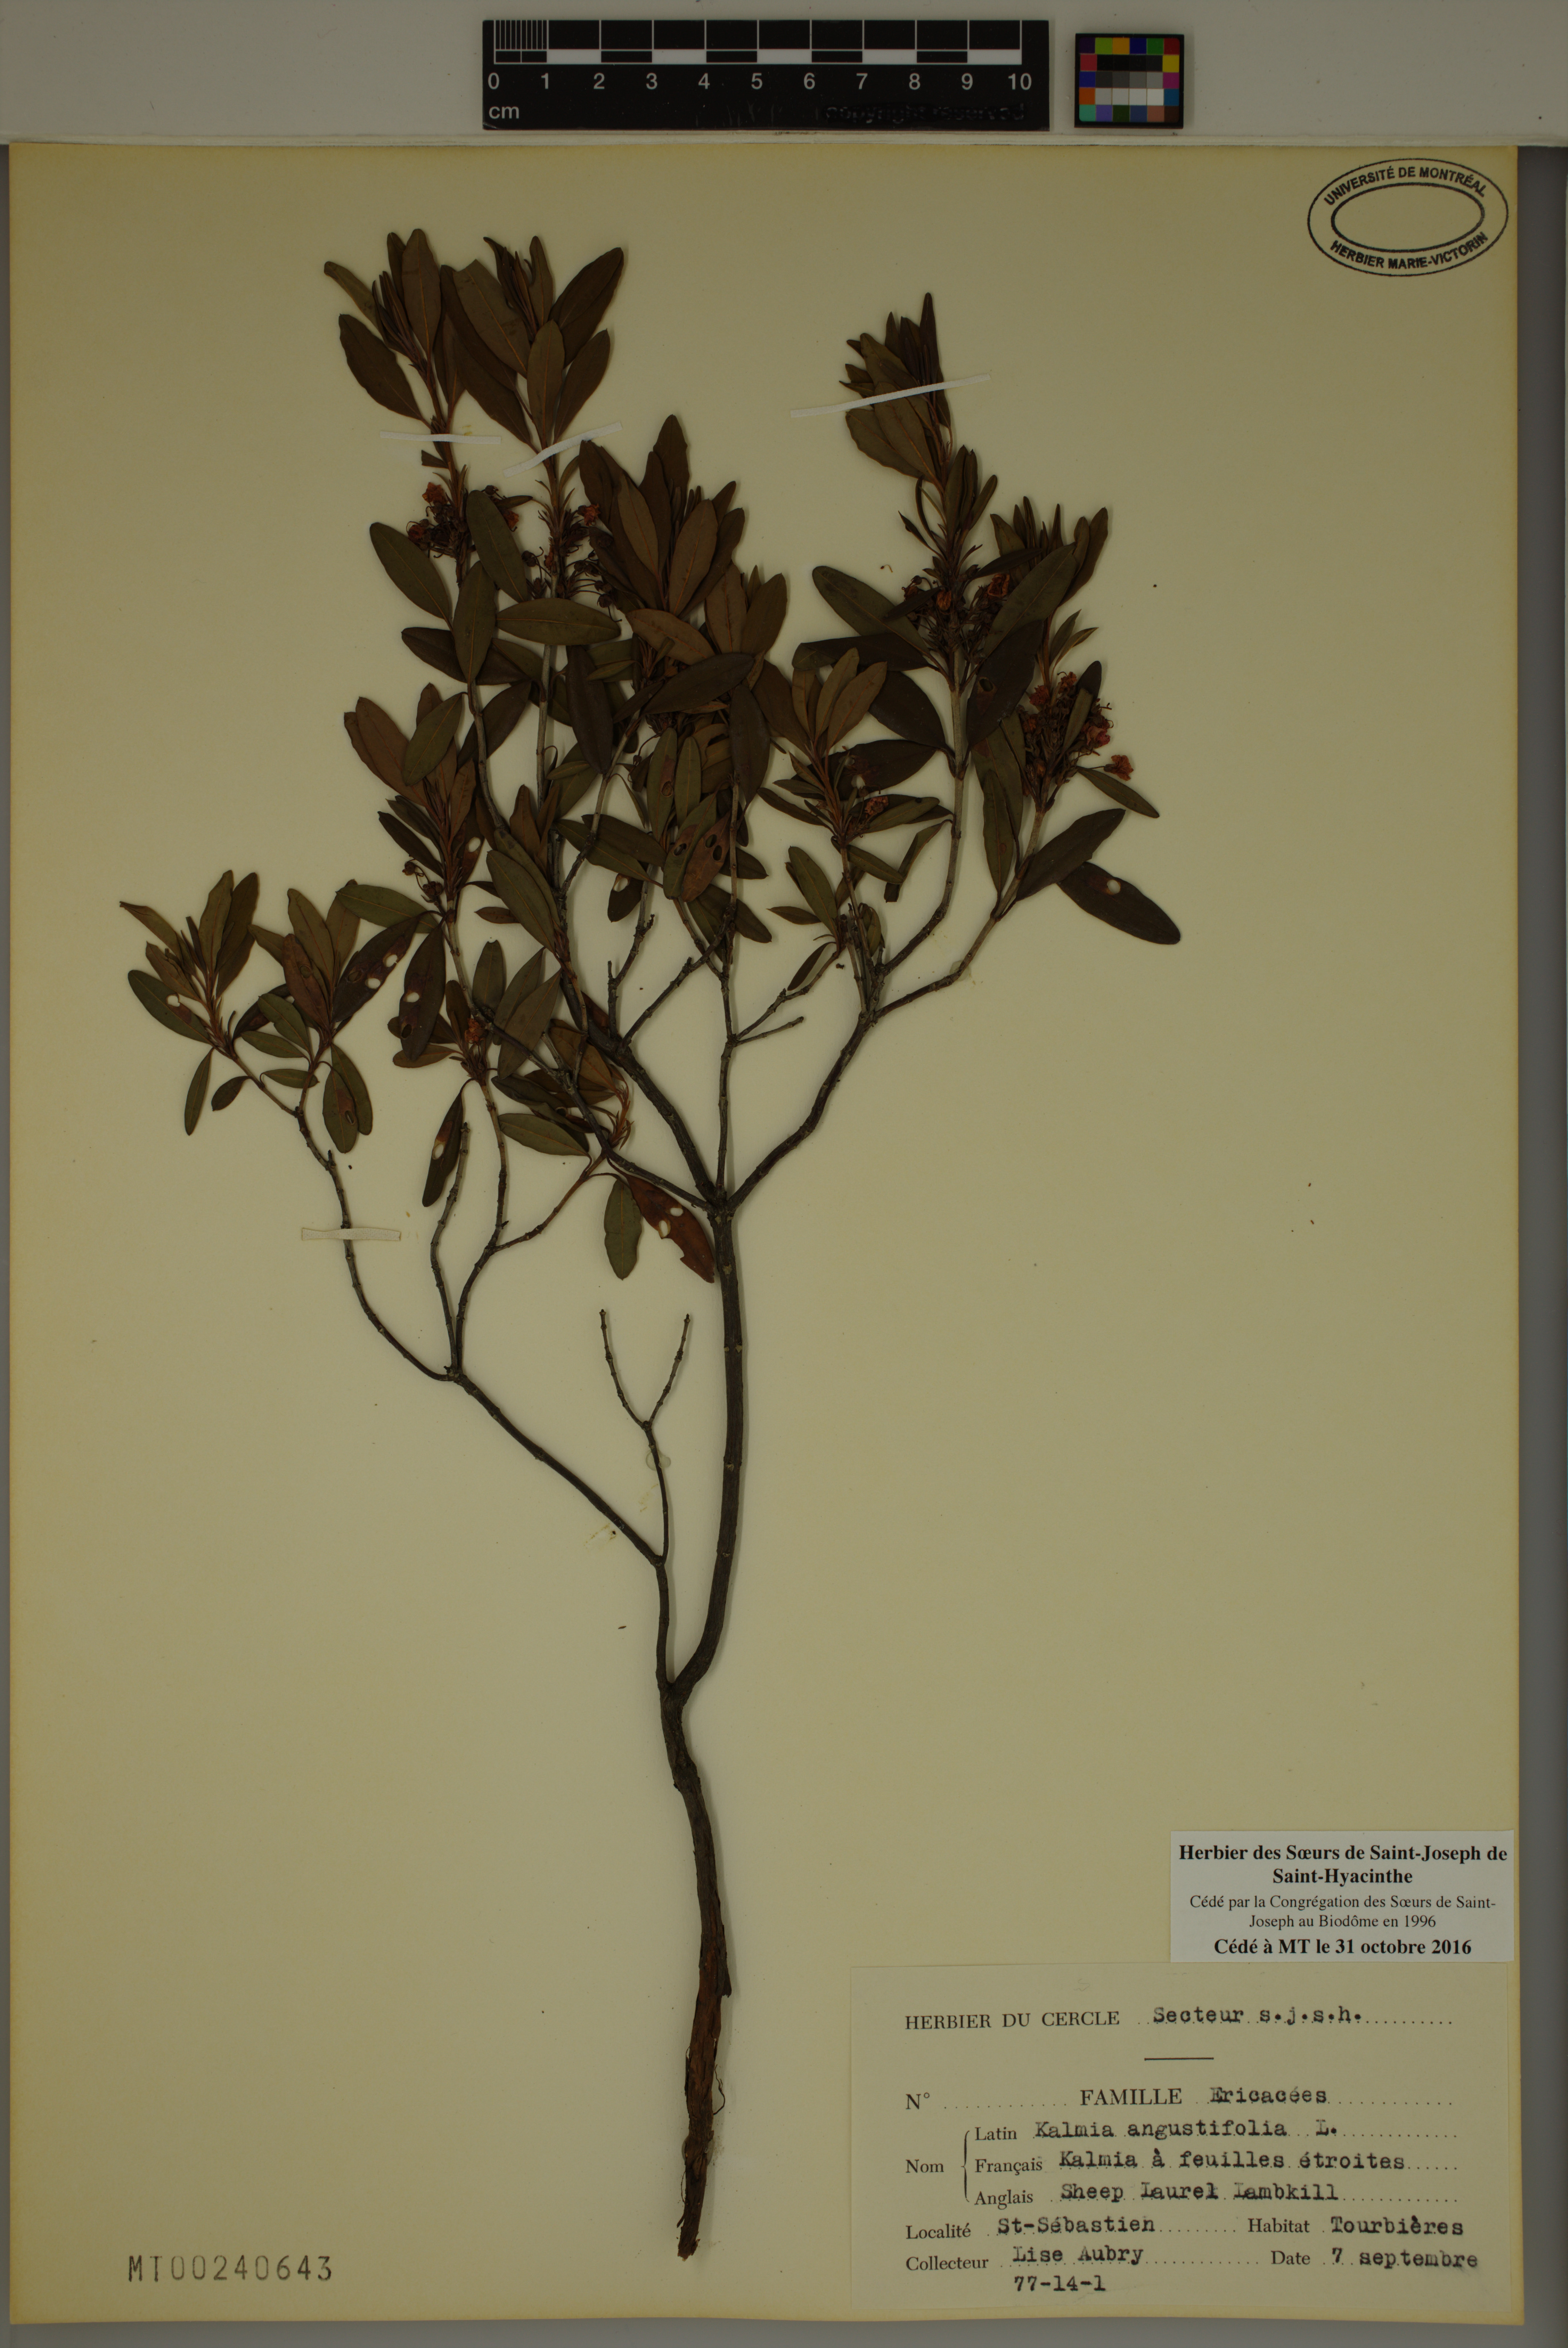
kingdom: Plantae
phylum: Tracheophyta
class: Magnoliopsida
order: Ericales
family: Ericaceae
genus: Kalmia
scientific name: Kalmia angustifolia
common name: Sheep-laurel
